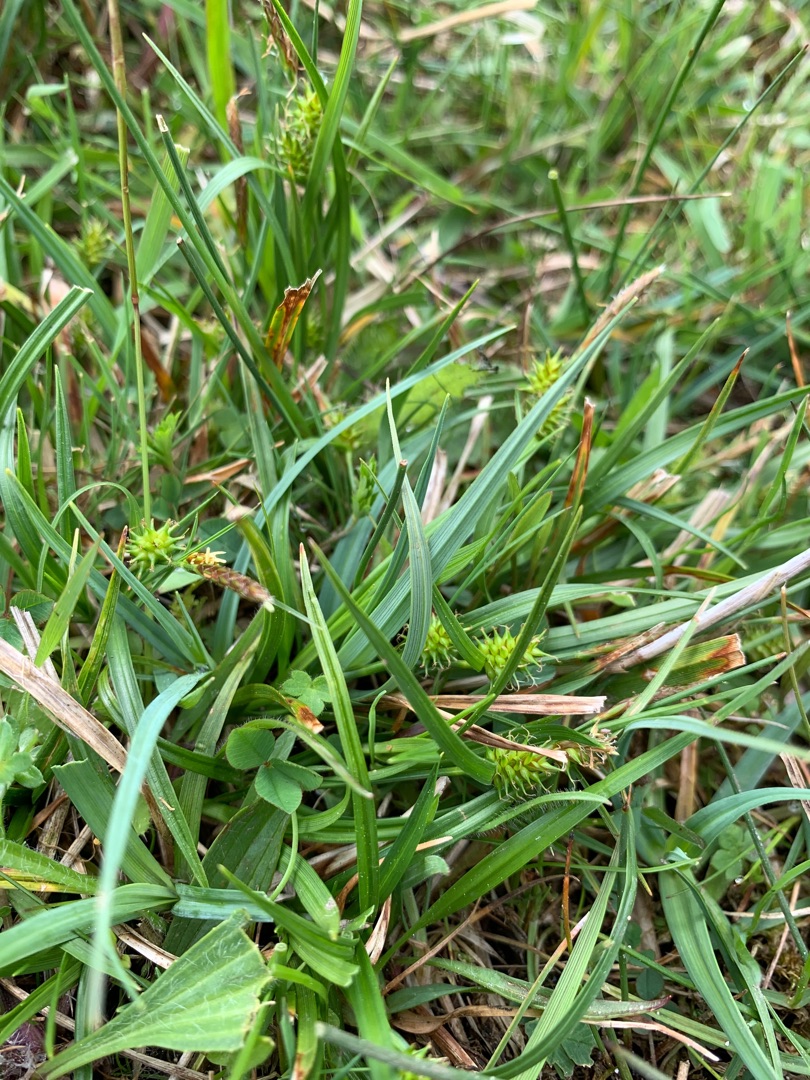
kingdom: Plantae
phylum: Tracheophyta
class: Liliopsida
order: Poales
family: Cyperaceae
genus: Carex
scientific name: Carex demissa
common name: Grøn star
